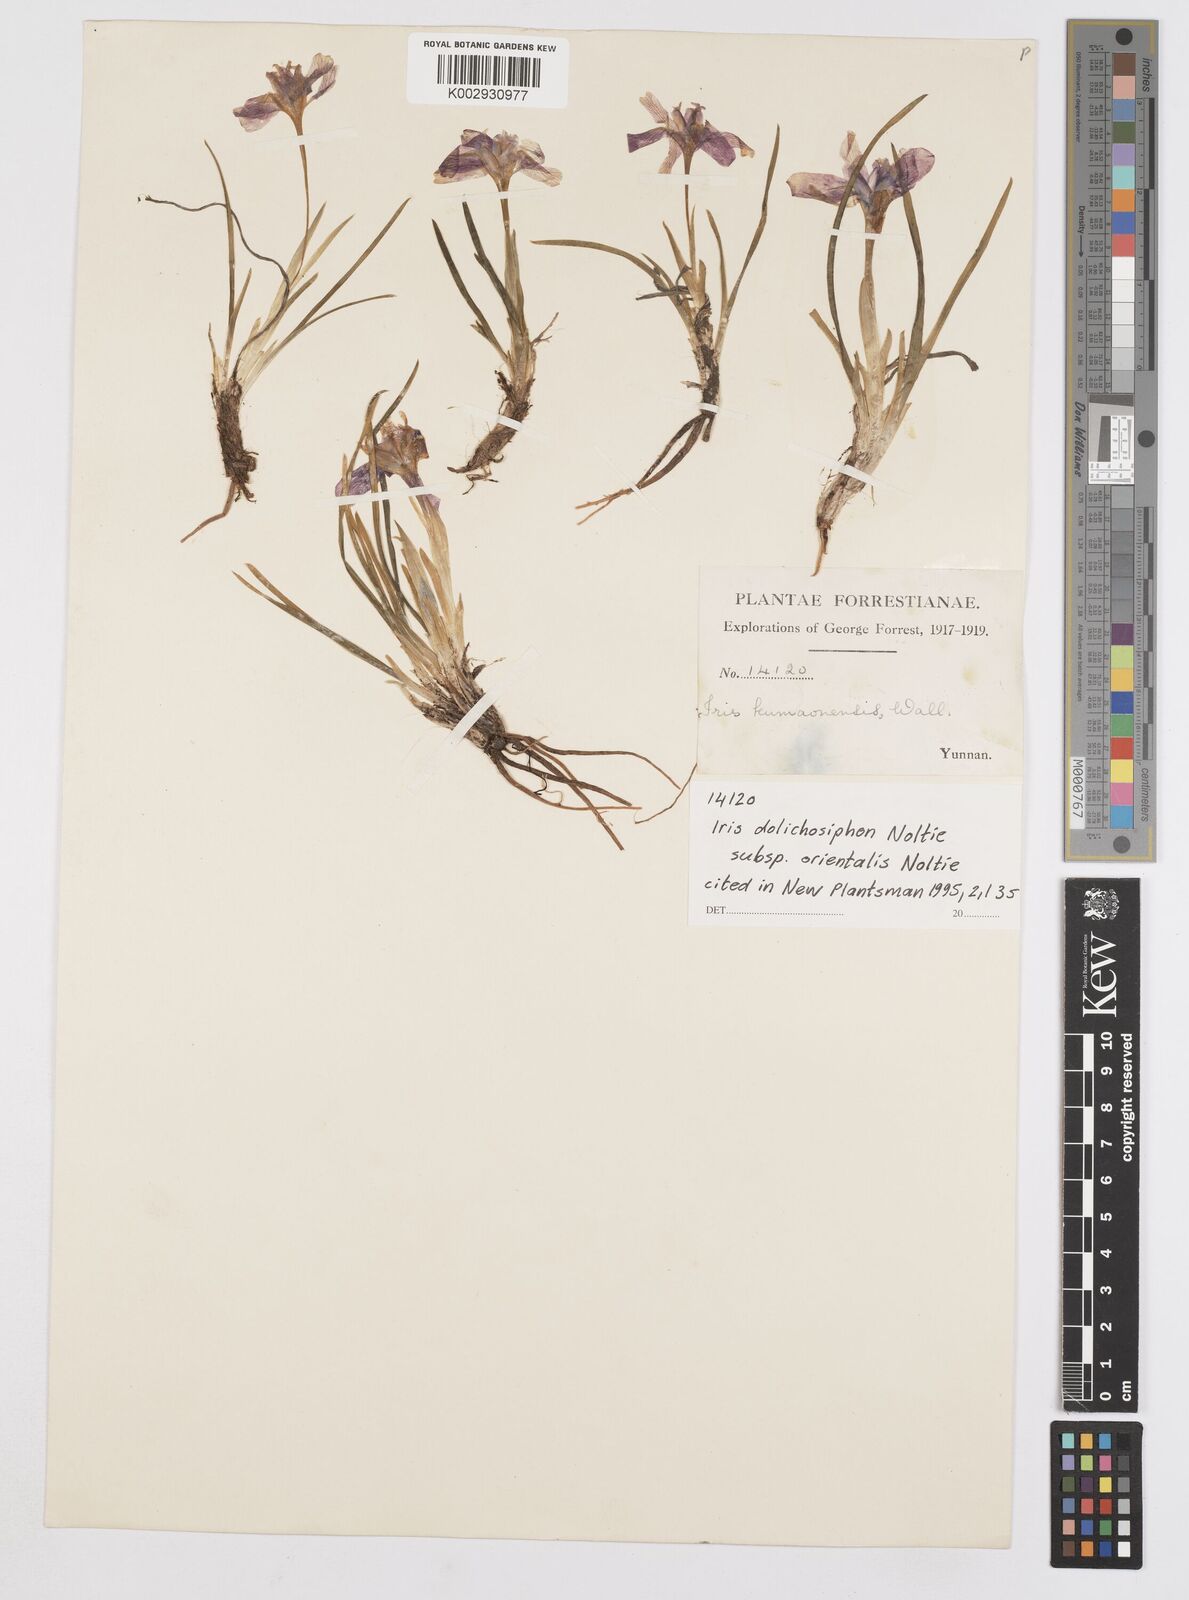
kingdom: Plantae
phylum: Tracheophyta
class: Liliopsida
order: Asparagales
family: Iridaceae
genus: Iris
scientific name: Iris dolichosiphon
